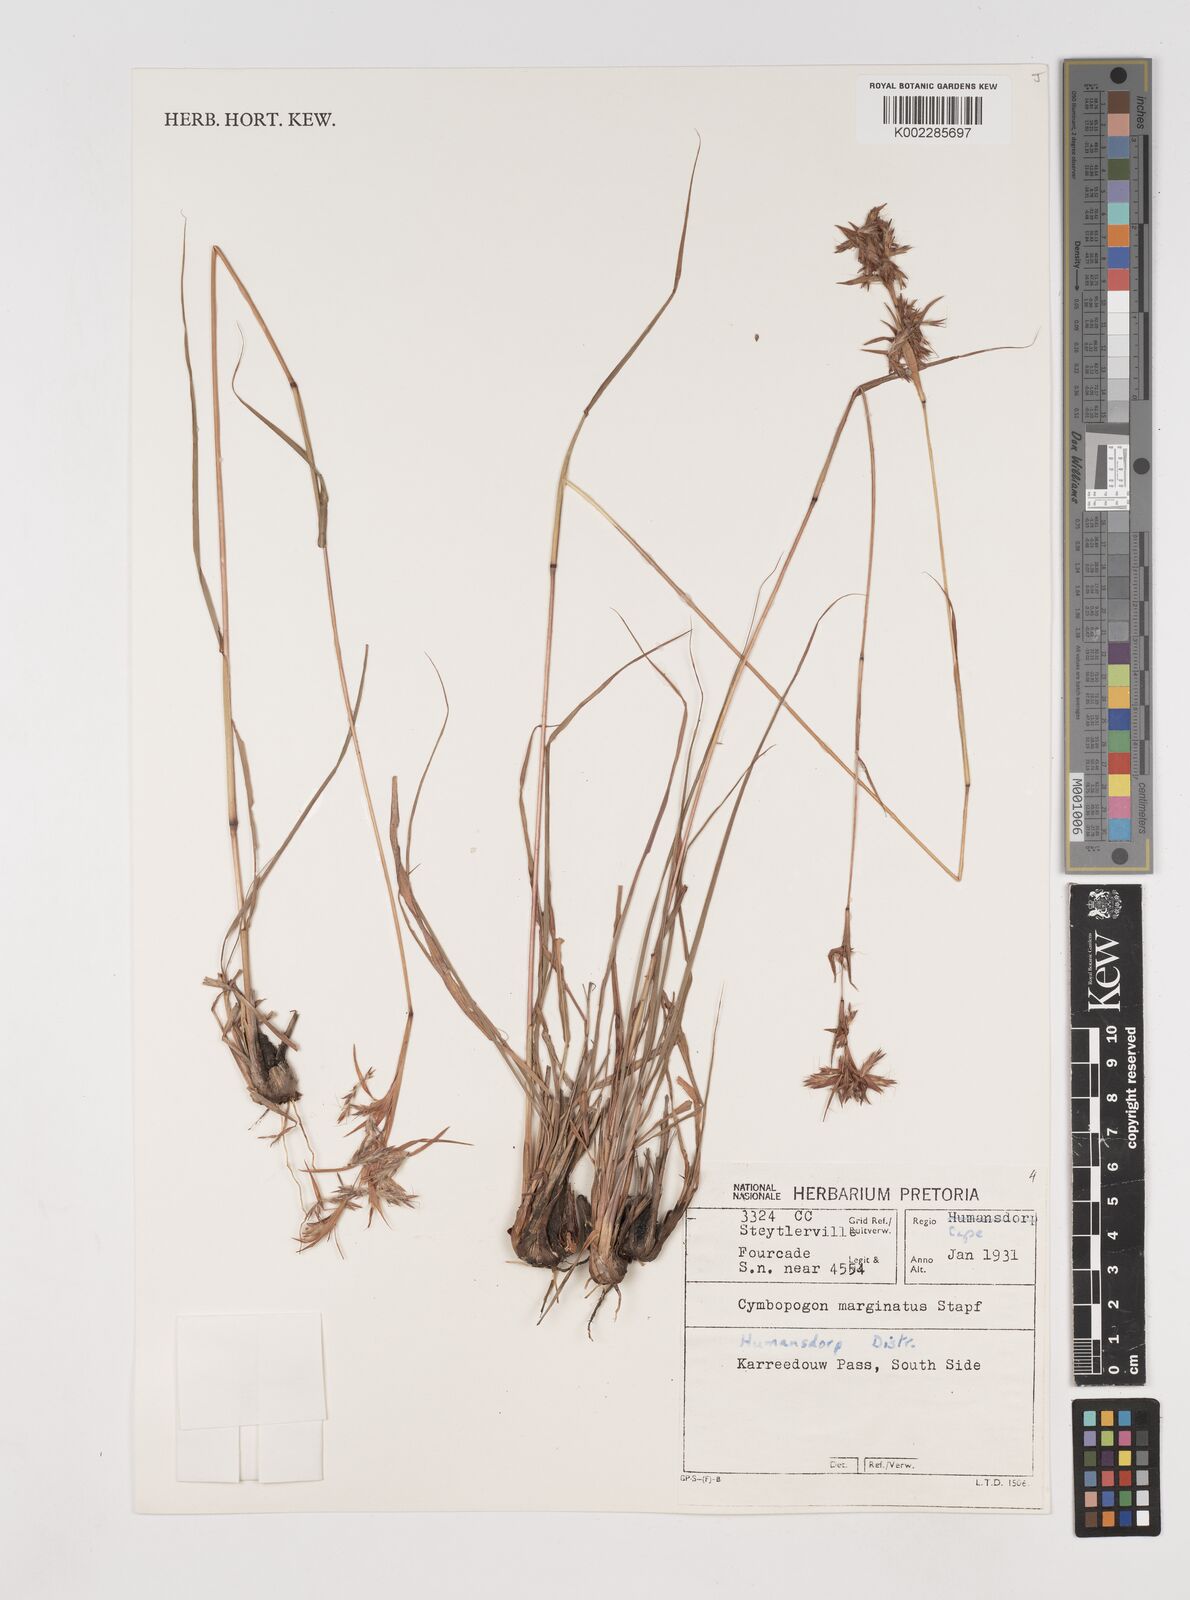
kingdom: Plantae
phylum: Tracheophyta
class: Liliopsida
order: Poales
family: Poaceae
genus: Cymbopogon
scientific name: Cymbopogon marginatus
